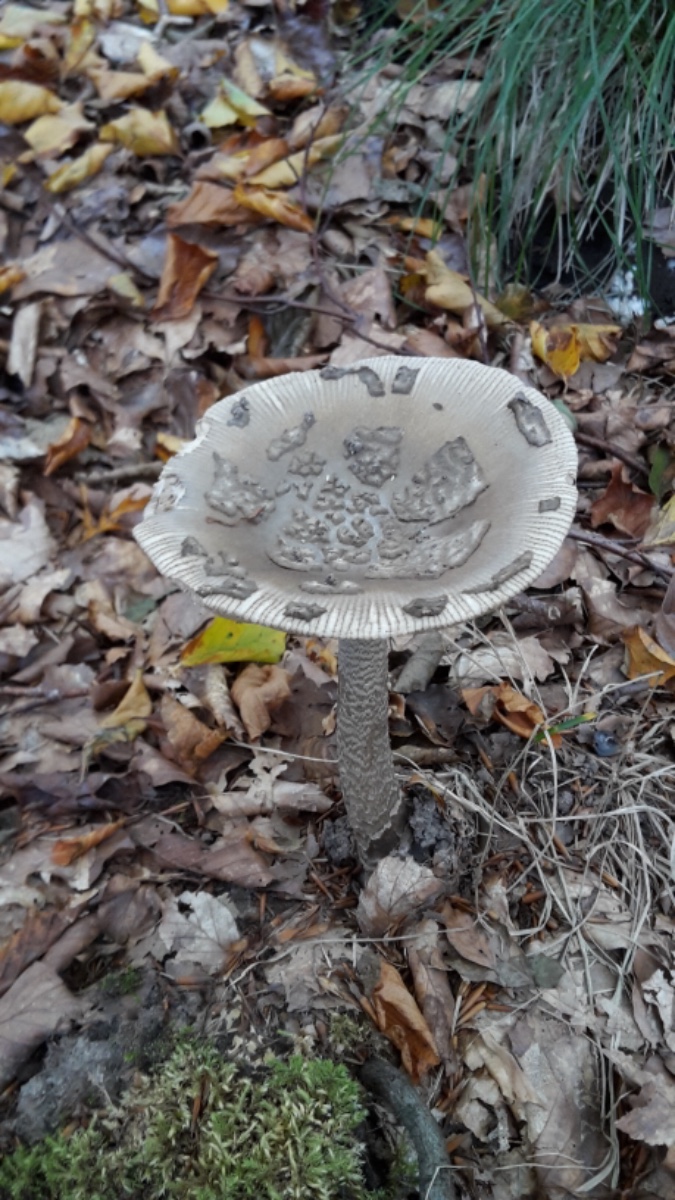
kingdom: Fungi
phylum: Basidiomycota
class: Agaricomycetes
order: Agaricales
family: Amanitaceae
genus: Amanita
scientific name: Amanita ceciliae
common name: stor kam-fluesvamp
